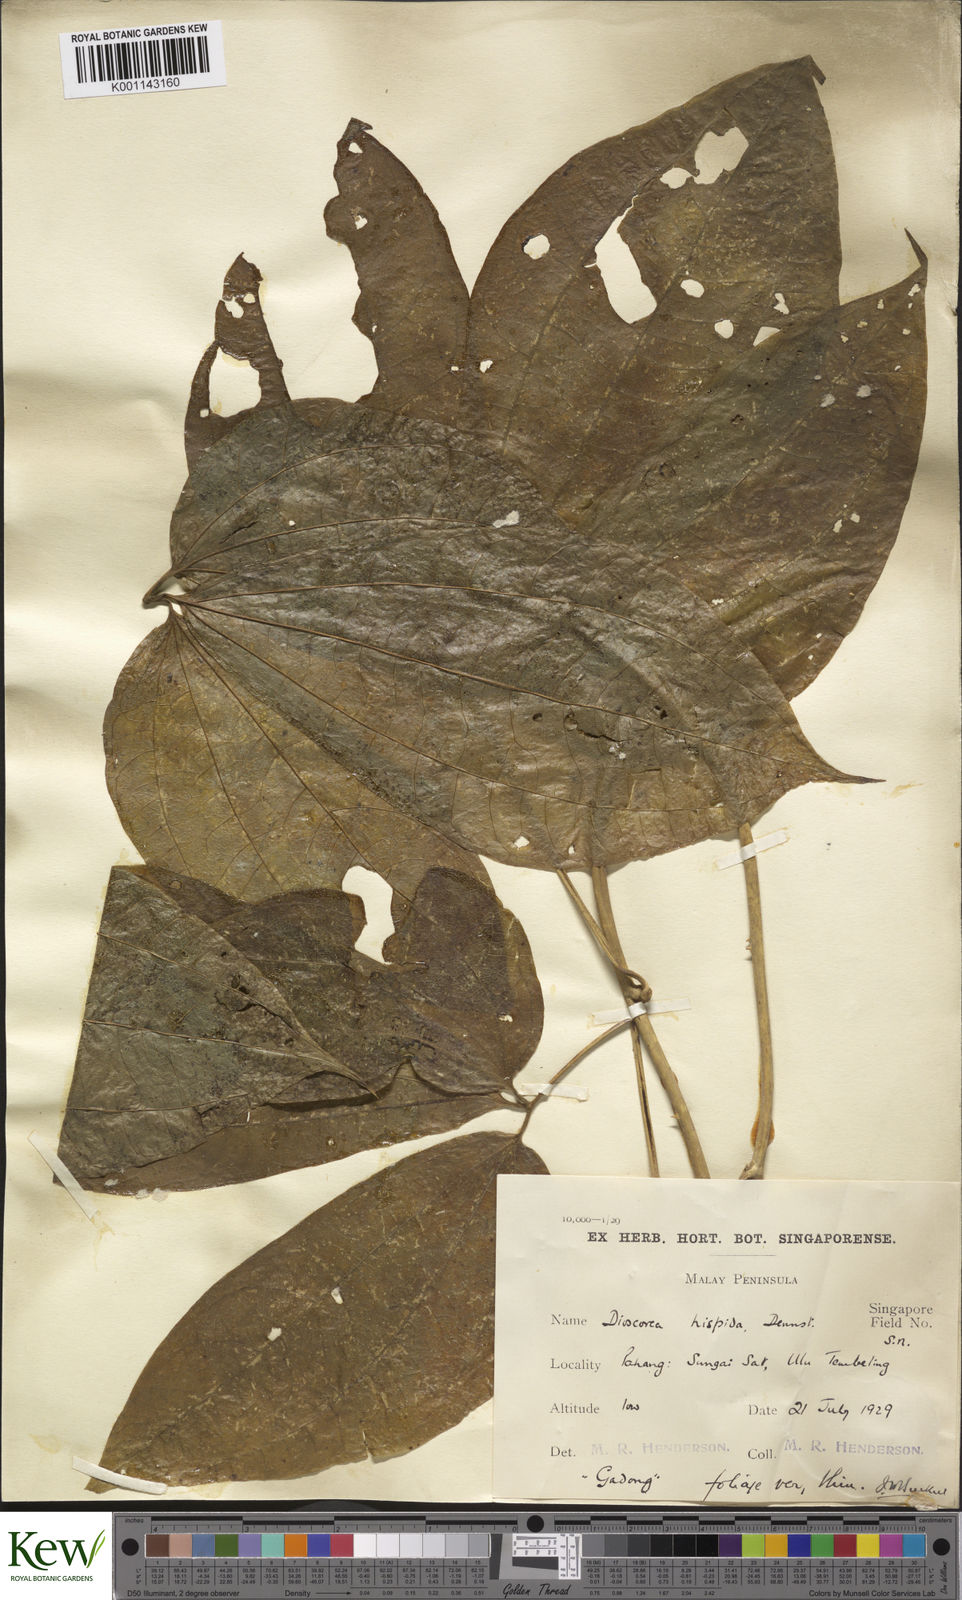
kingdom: Plantae
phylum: Tracheophyta
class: Liliopsida
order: Dioscoreales
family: Dioscoreaceae
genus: Dioscorea
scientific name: Dioscorea hispida
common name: Asiatic bitter yam
